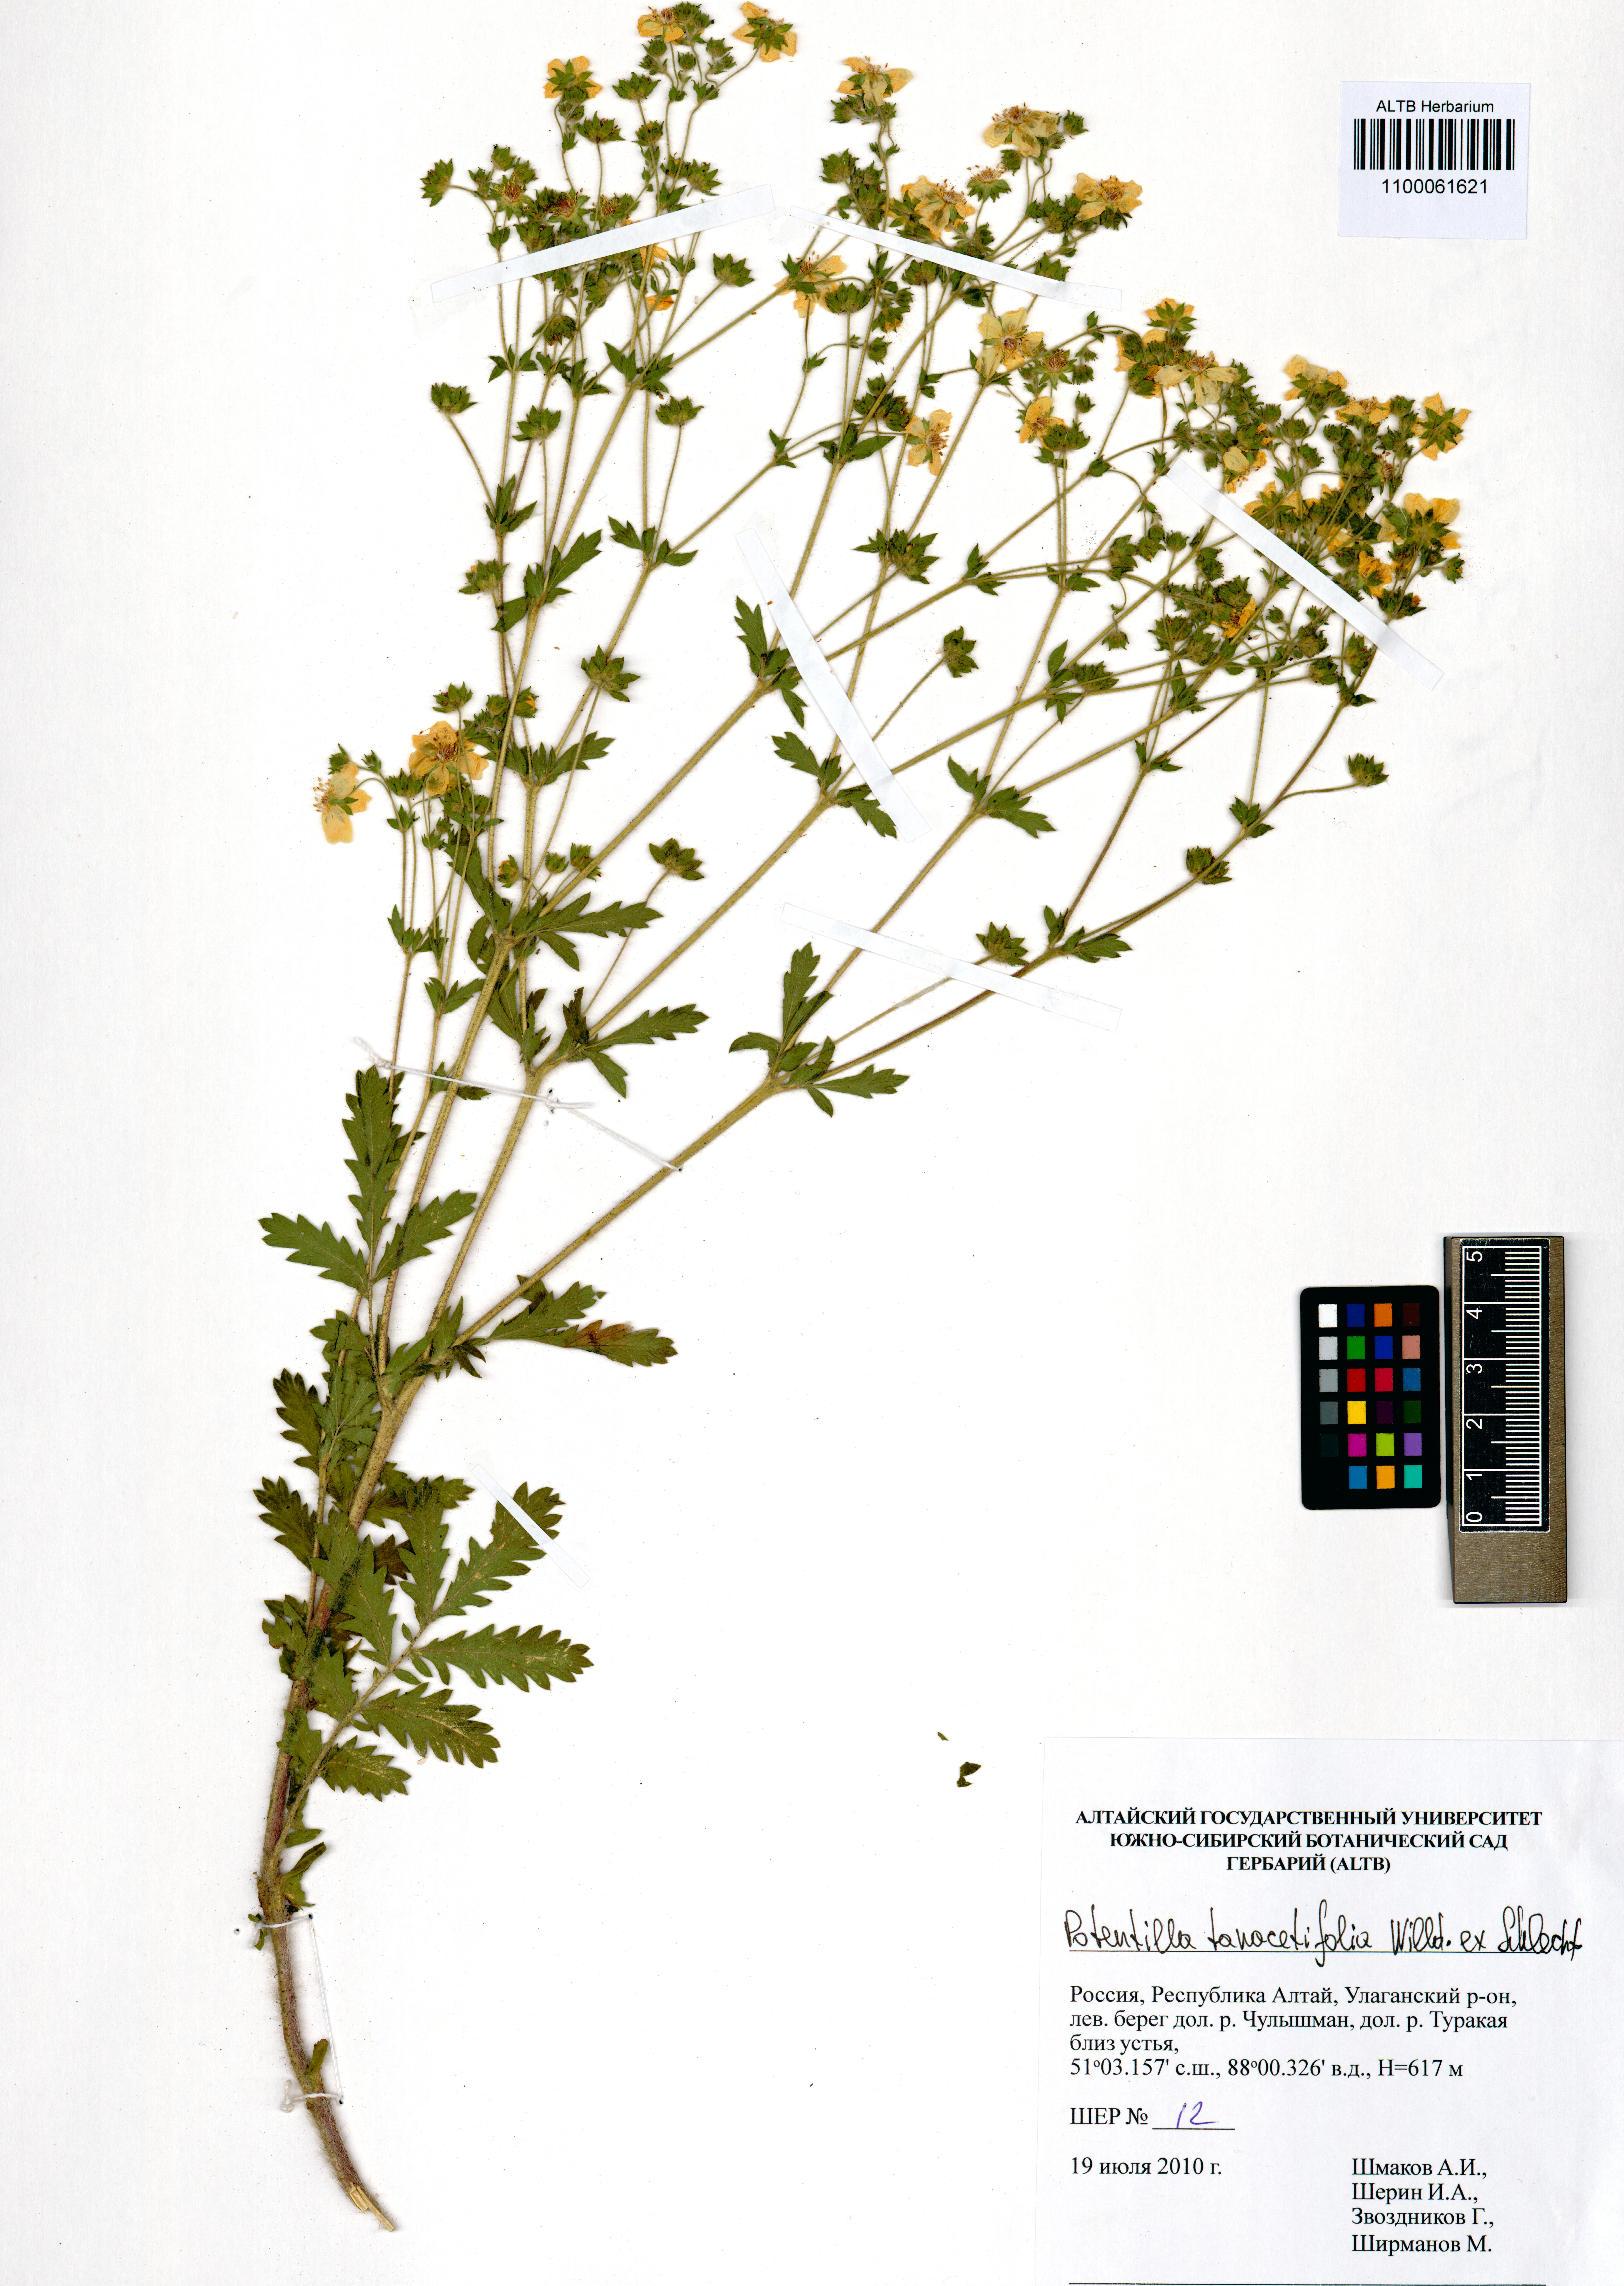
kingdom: Plantae
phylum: Tracheophyta
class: Magnoliopsida
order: Rosales
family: Rosaceae
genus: Potentilla
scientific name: Potentilla tanacetifolia
